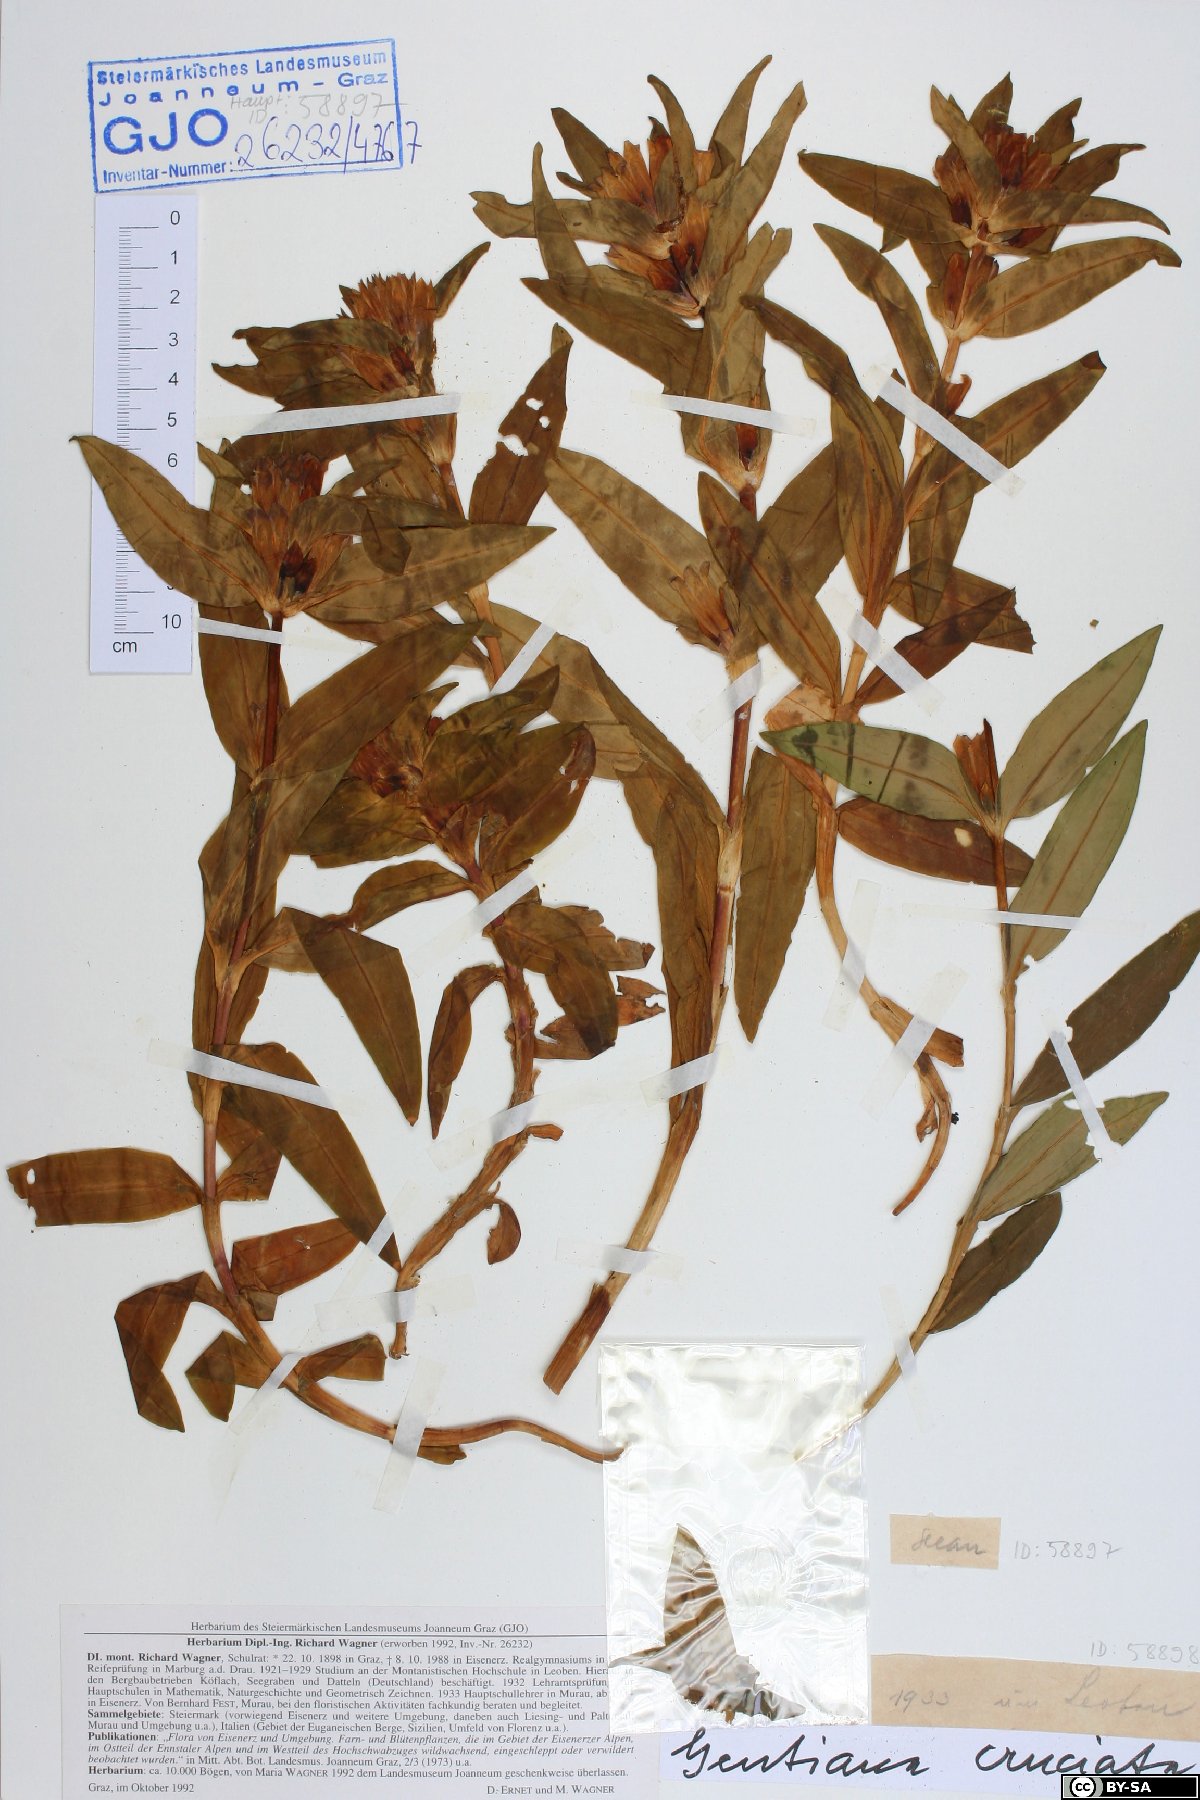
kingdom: Plantae
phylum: Tracheophyta
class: Magnoliopsida
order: Gentianales
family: Gentianaceae
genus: Gentiana
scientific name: Gentiana cruciata
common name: Cross gentian
